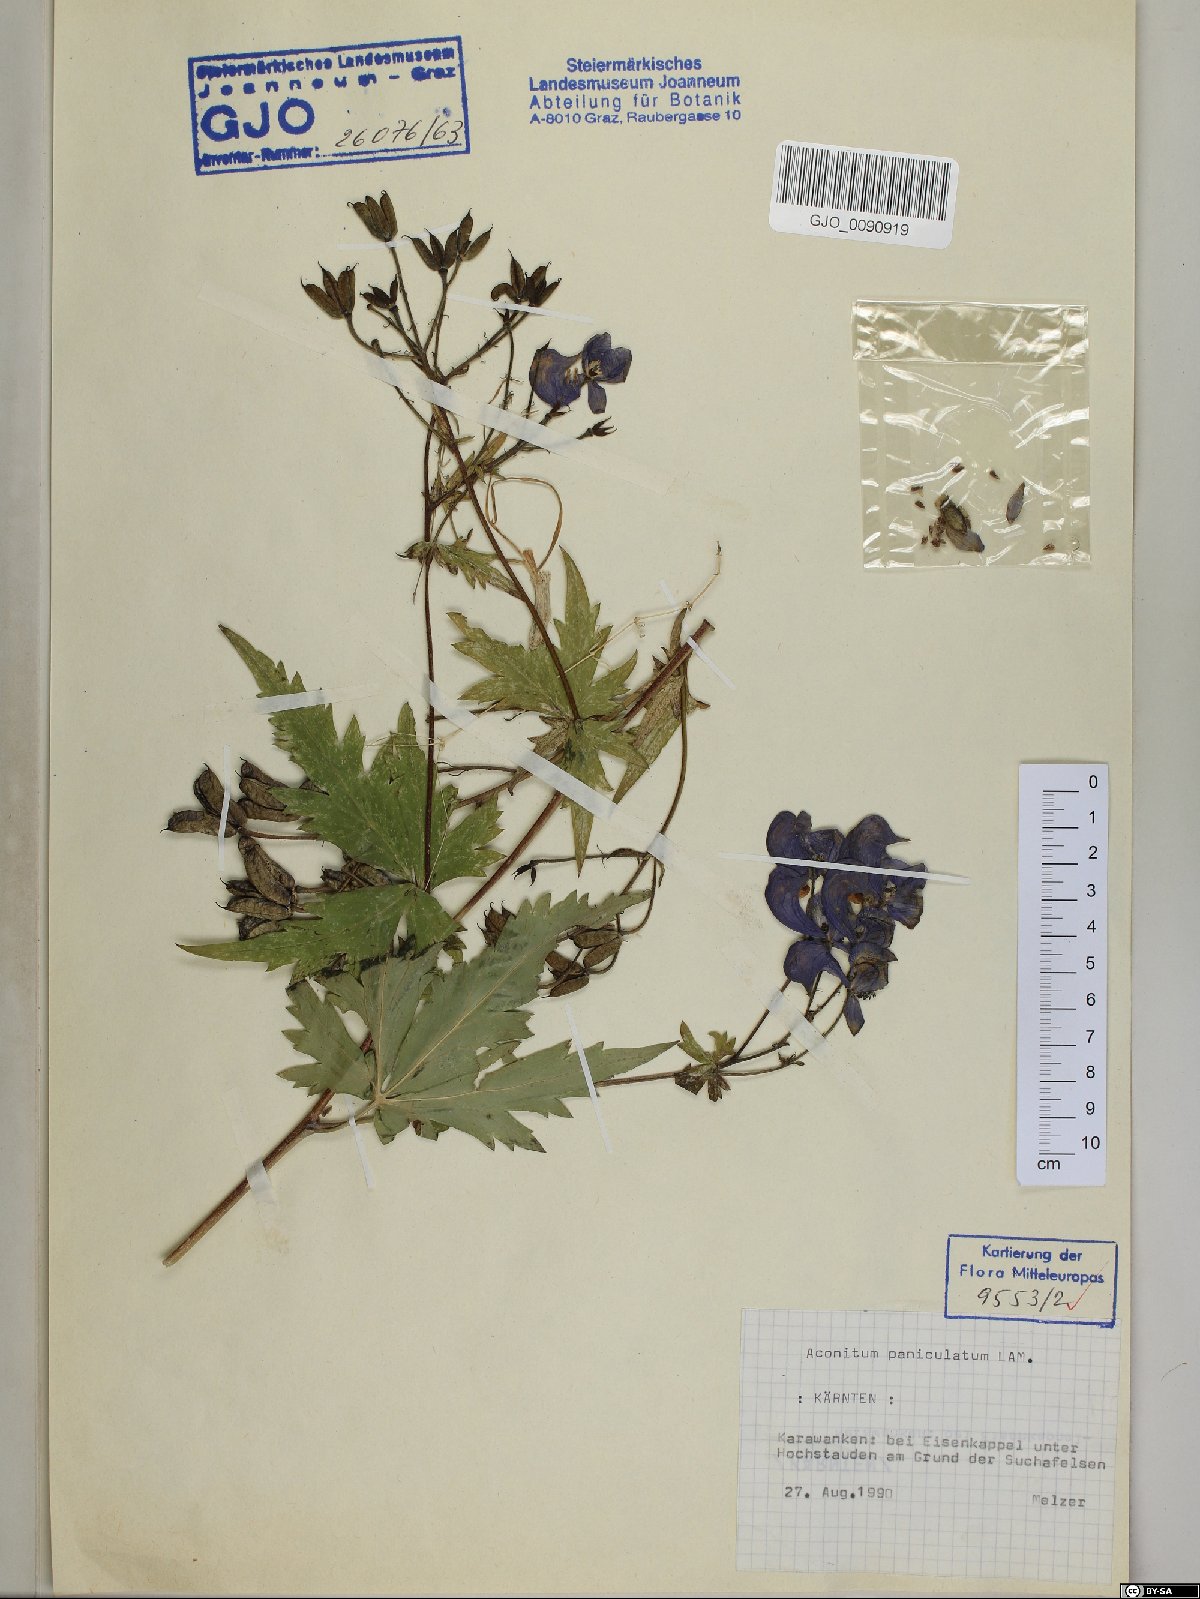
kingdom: Plantae
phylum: Tracheophyta
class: Magnoliopsida
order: Ranunculales
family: Ranunculaceae
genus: Aconitum
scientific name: Aconitum degenii
